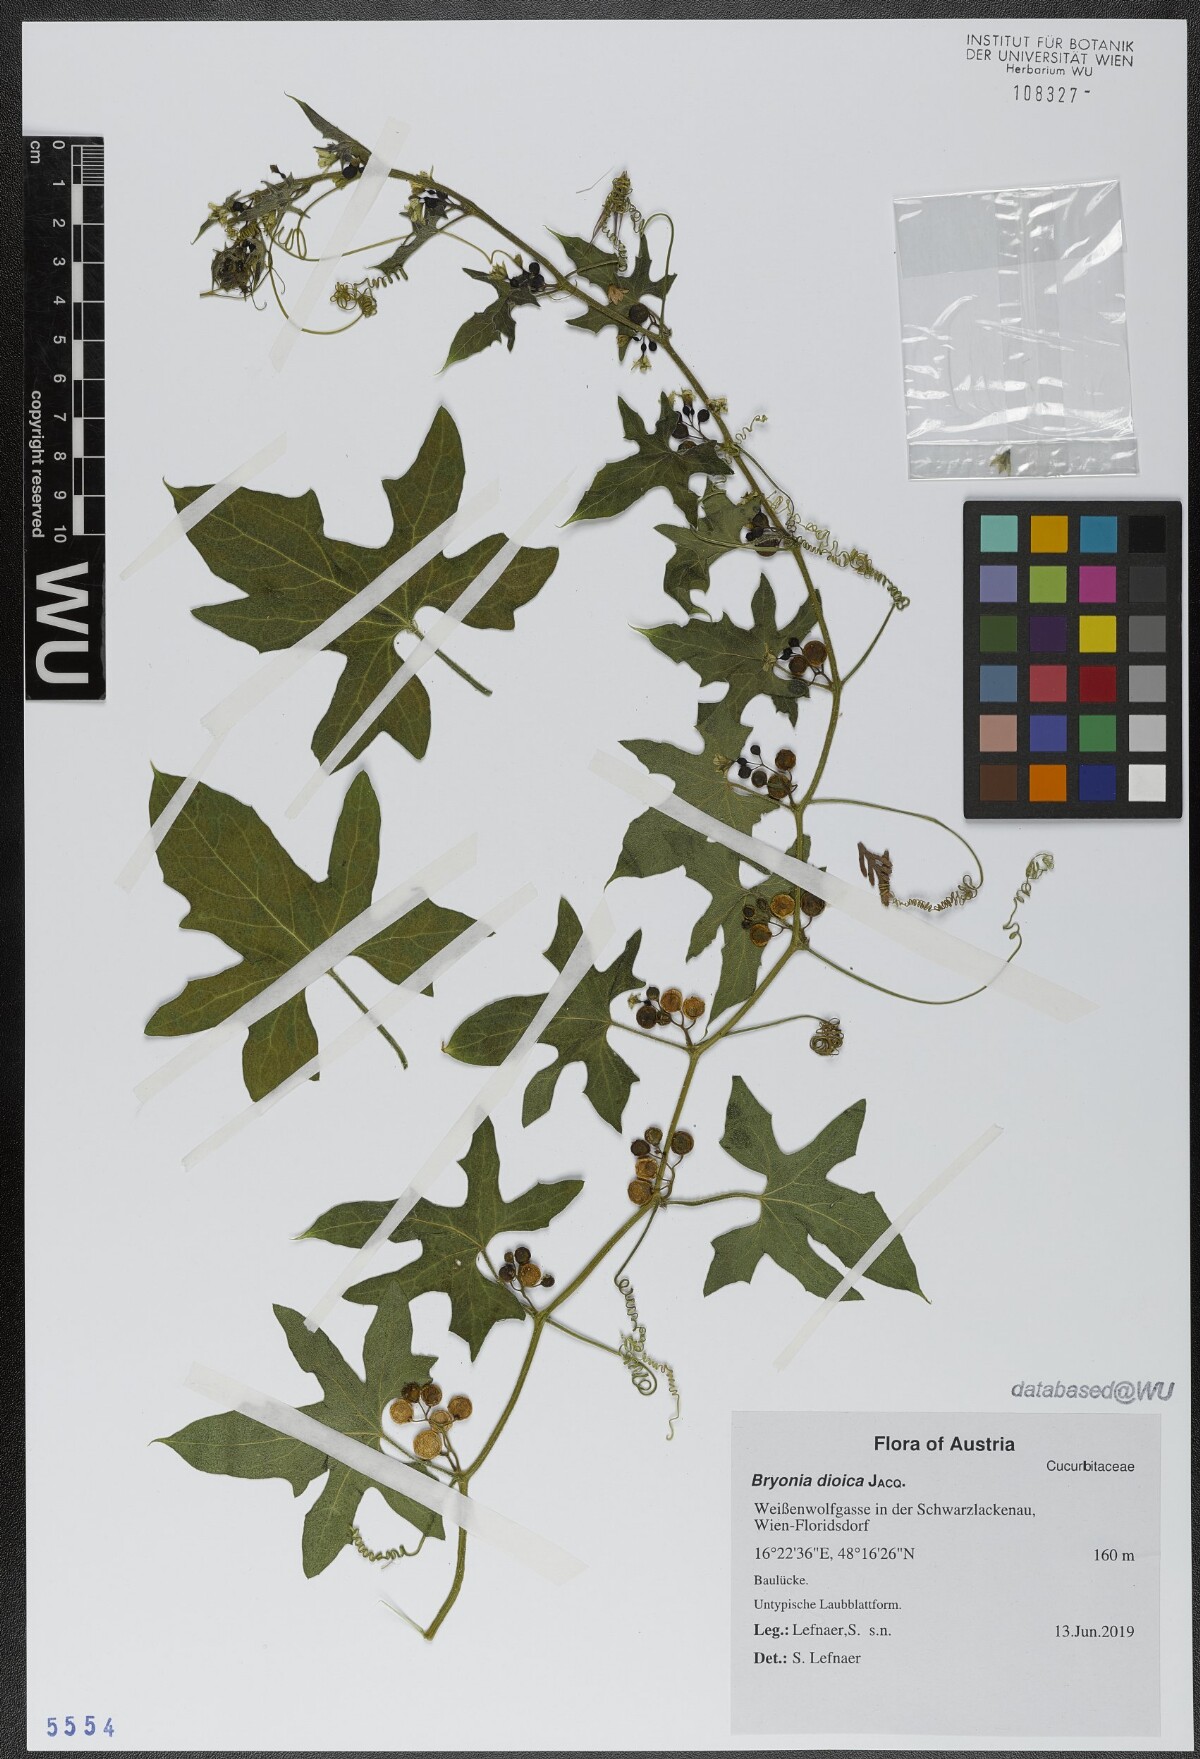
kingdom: Plantae
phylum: Tracheophyta
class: Magnoliopsida
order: Cucurbitales
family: Cucurbitaceae
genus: Bryonia
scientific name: Bryonia dioica
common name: White bryony
